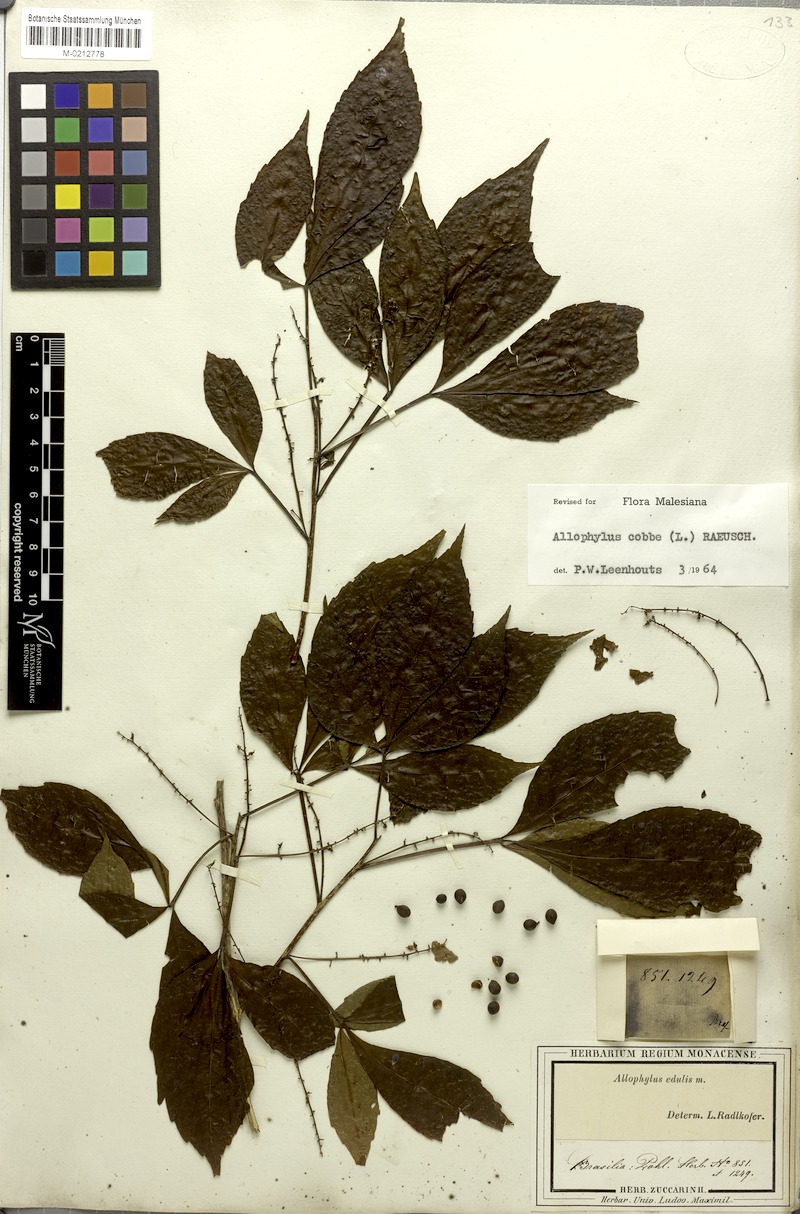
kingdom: Plantae
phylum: Tracheophyta
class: Magnoliopsida
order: Sapindales
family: Sapindaceae
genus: Allophylus
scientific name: Allophylus edulis
